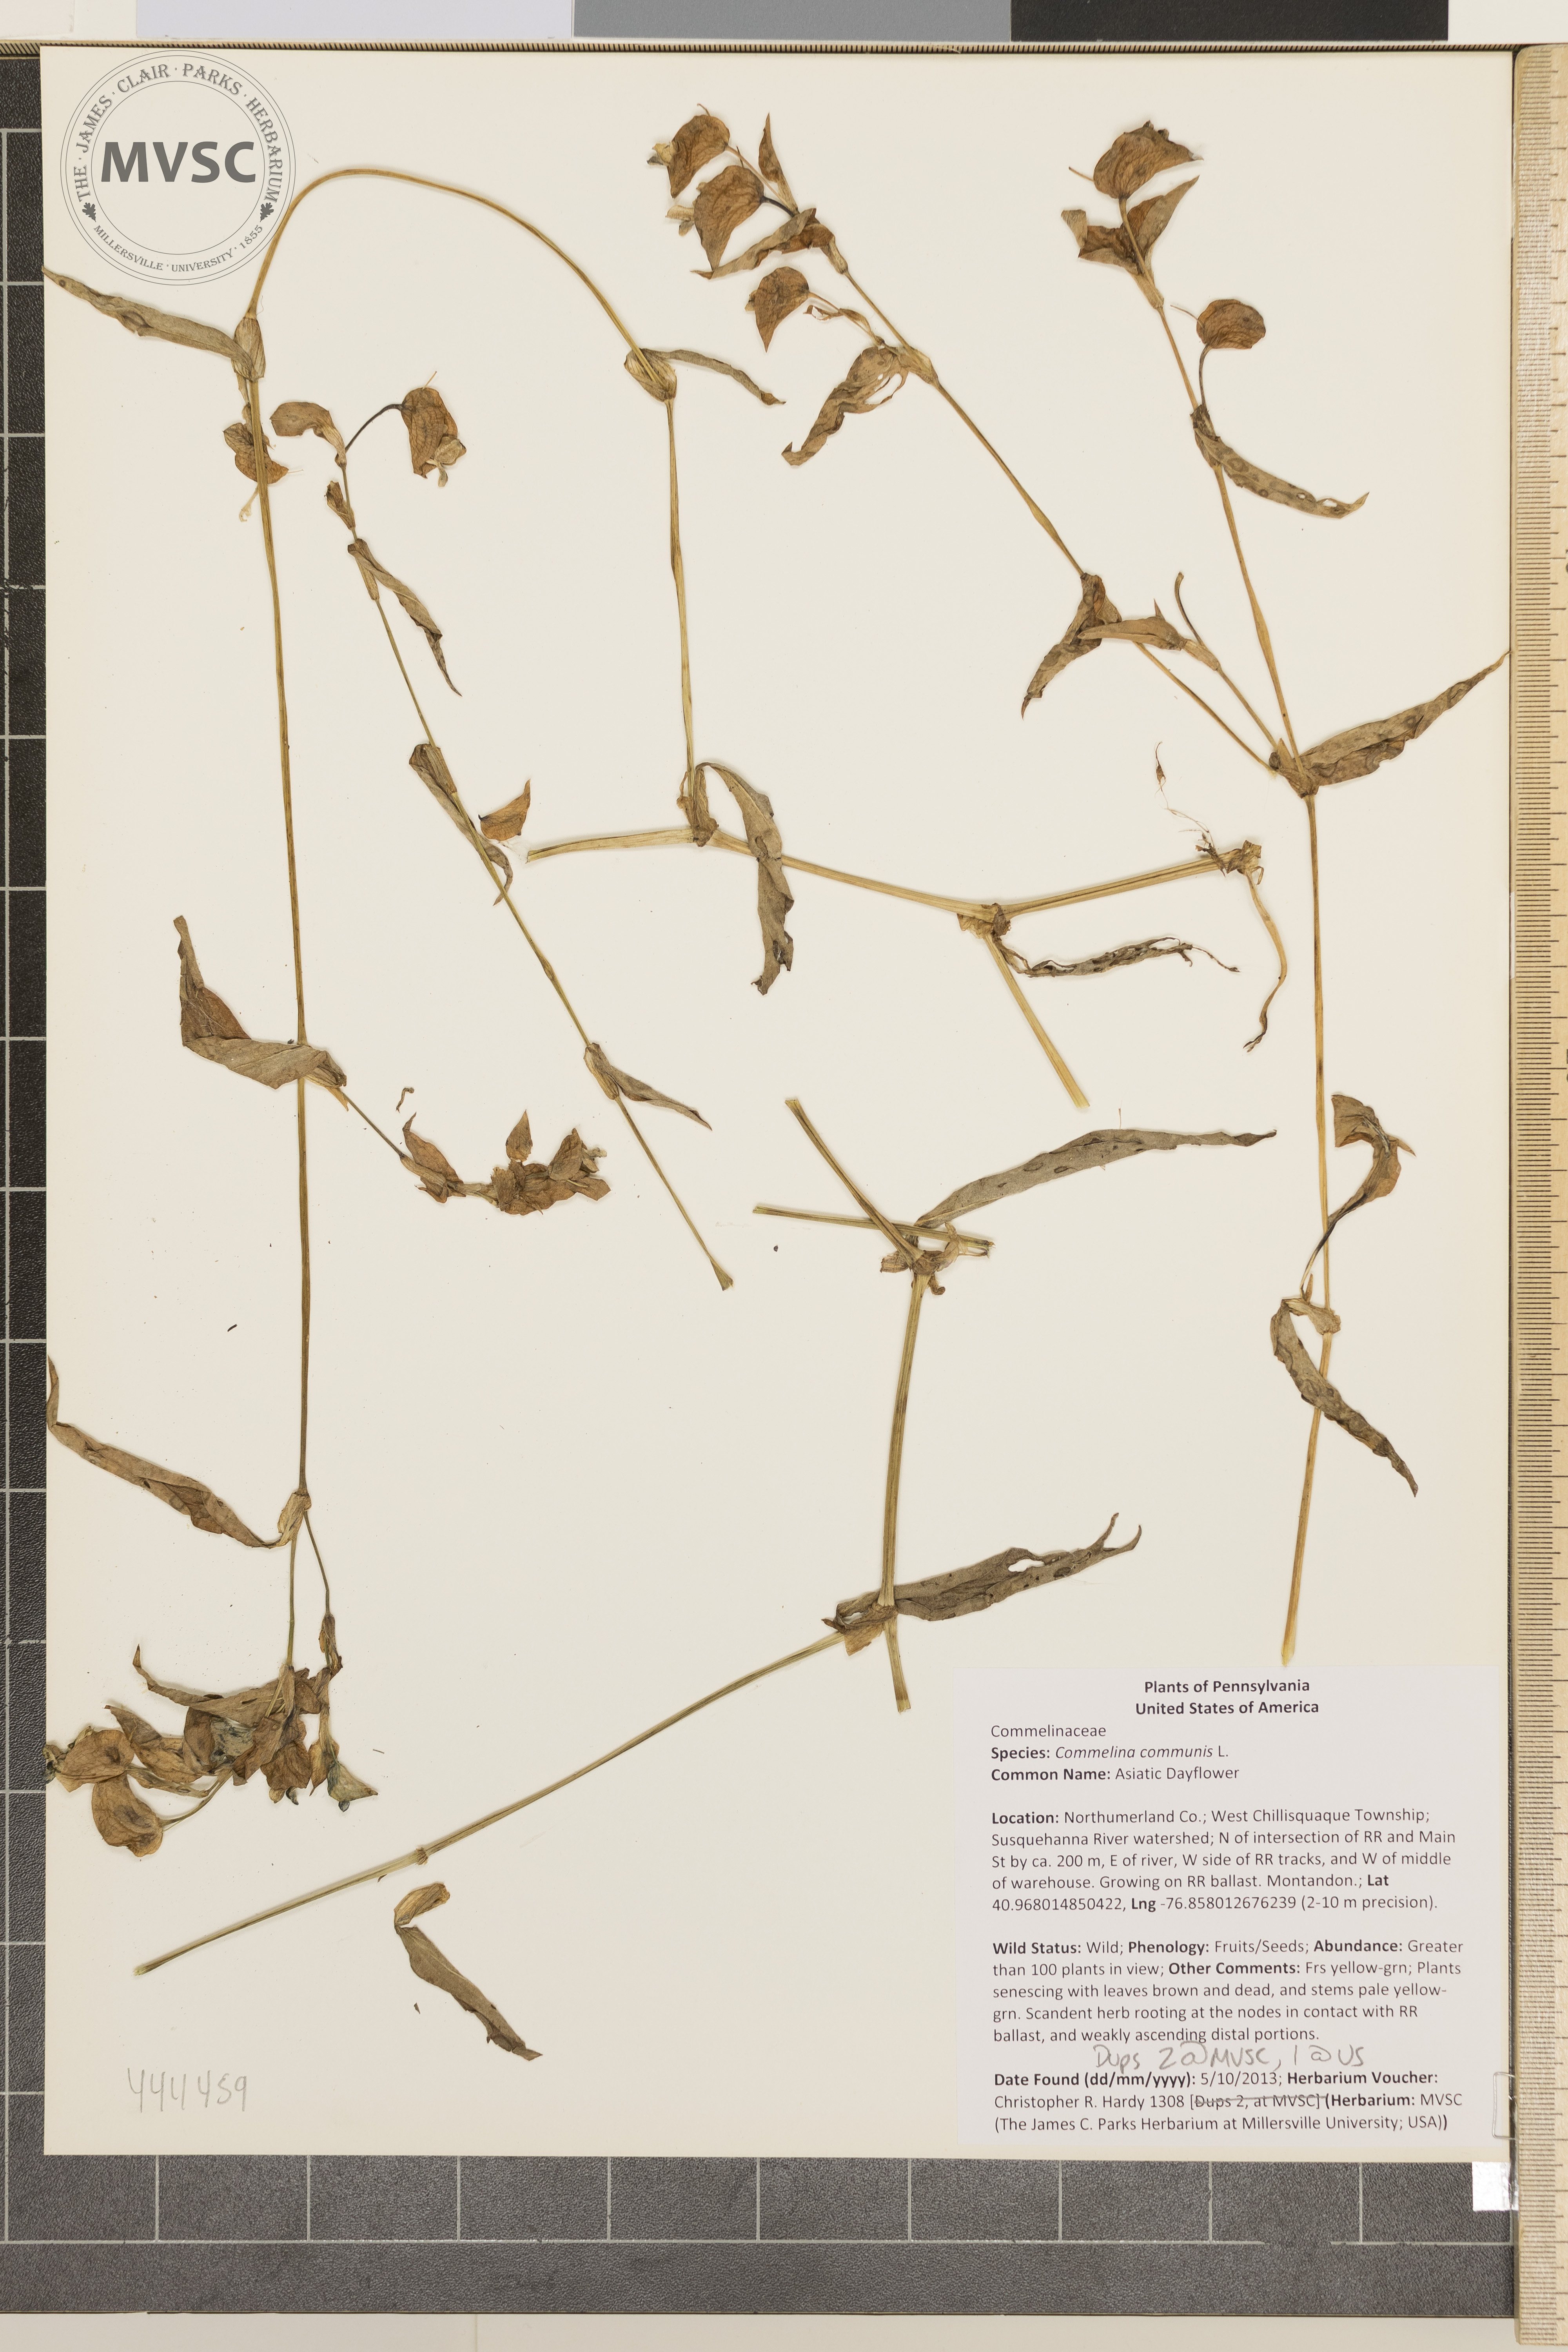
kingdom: Plantae
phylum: Tracheophyta
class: Liliopsida
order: Commelinales
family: Commelinaceae
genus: Commelina
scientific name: Commelina communis
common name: Asiatic Dayflower
